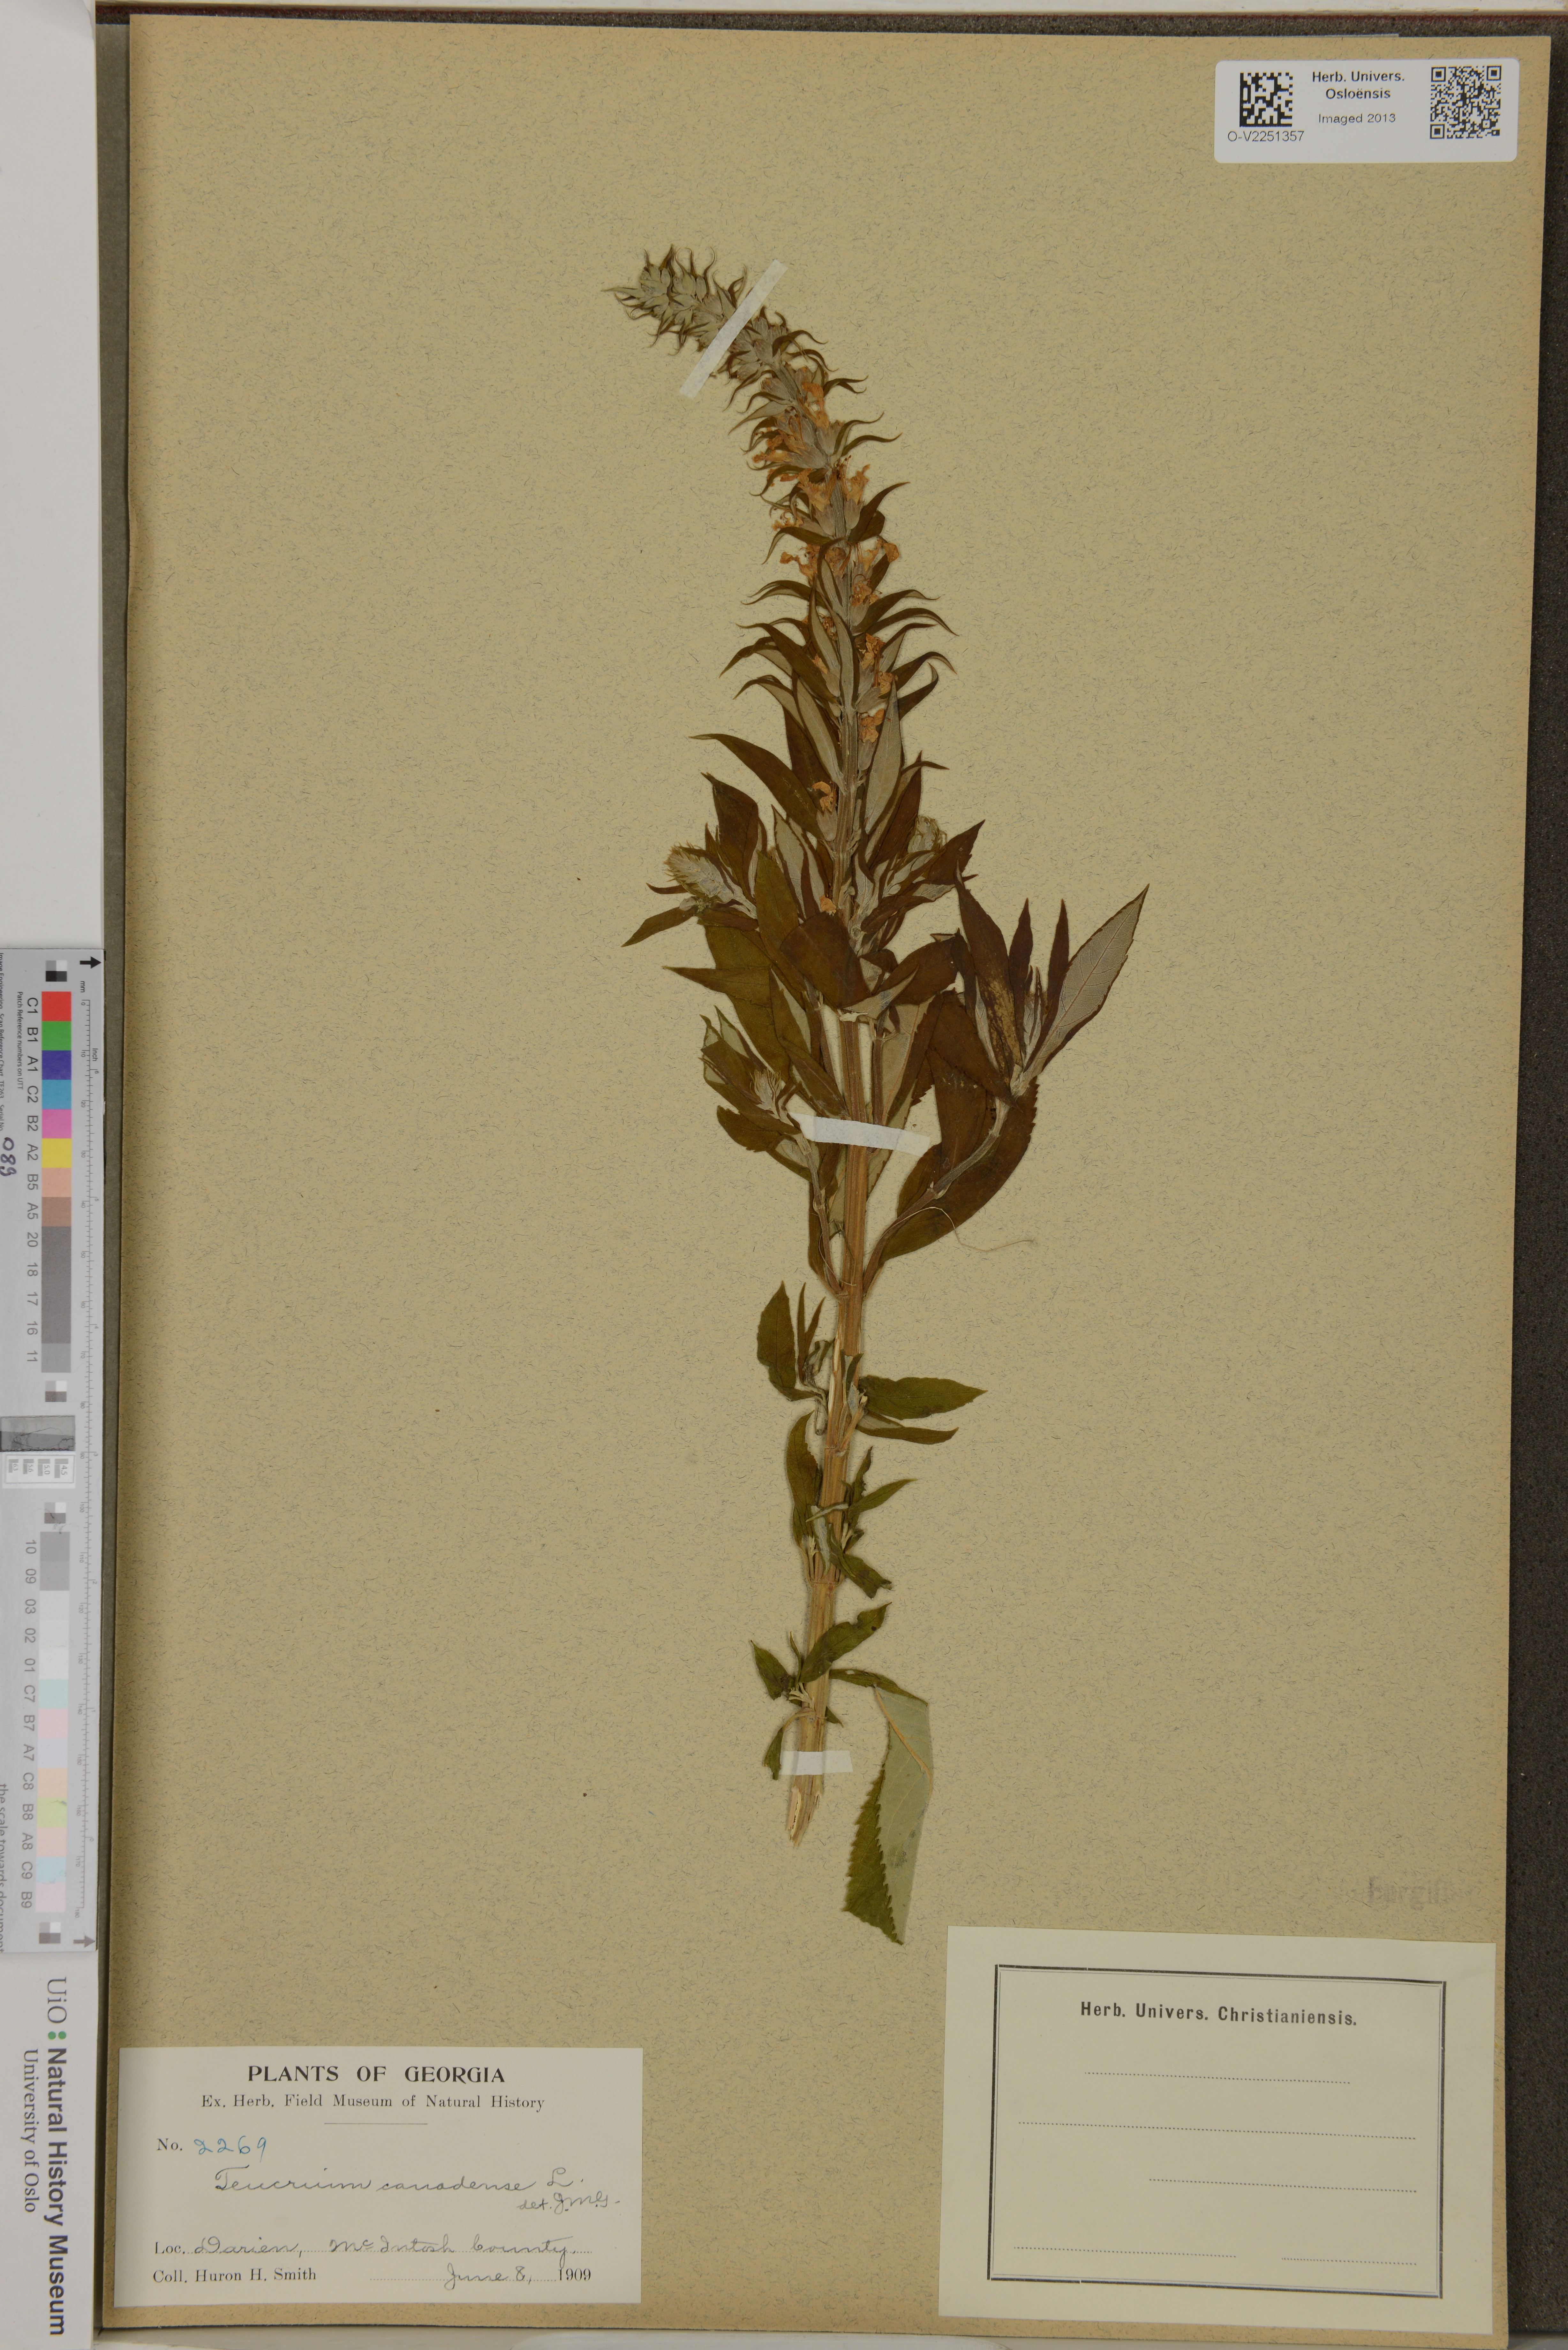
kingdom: Plantae
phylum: Tracheophyta
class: Magnoliopsida
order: Lamiales
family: Lamiaceae
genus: Teucrium
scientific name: Teucrium canadense
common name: American germander
